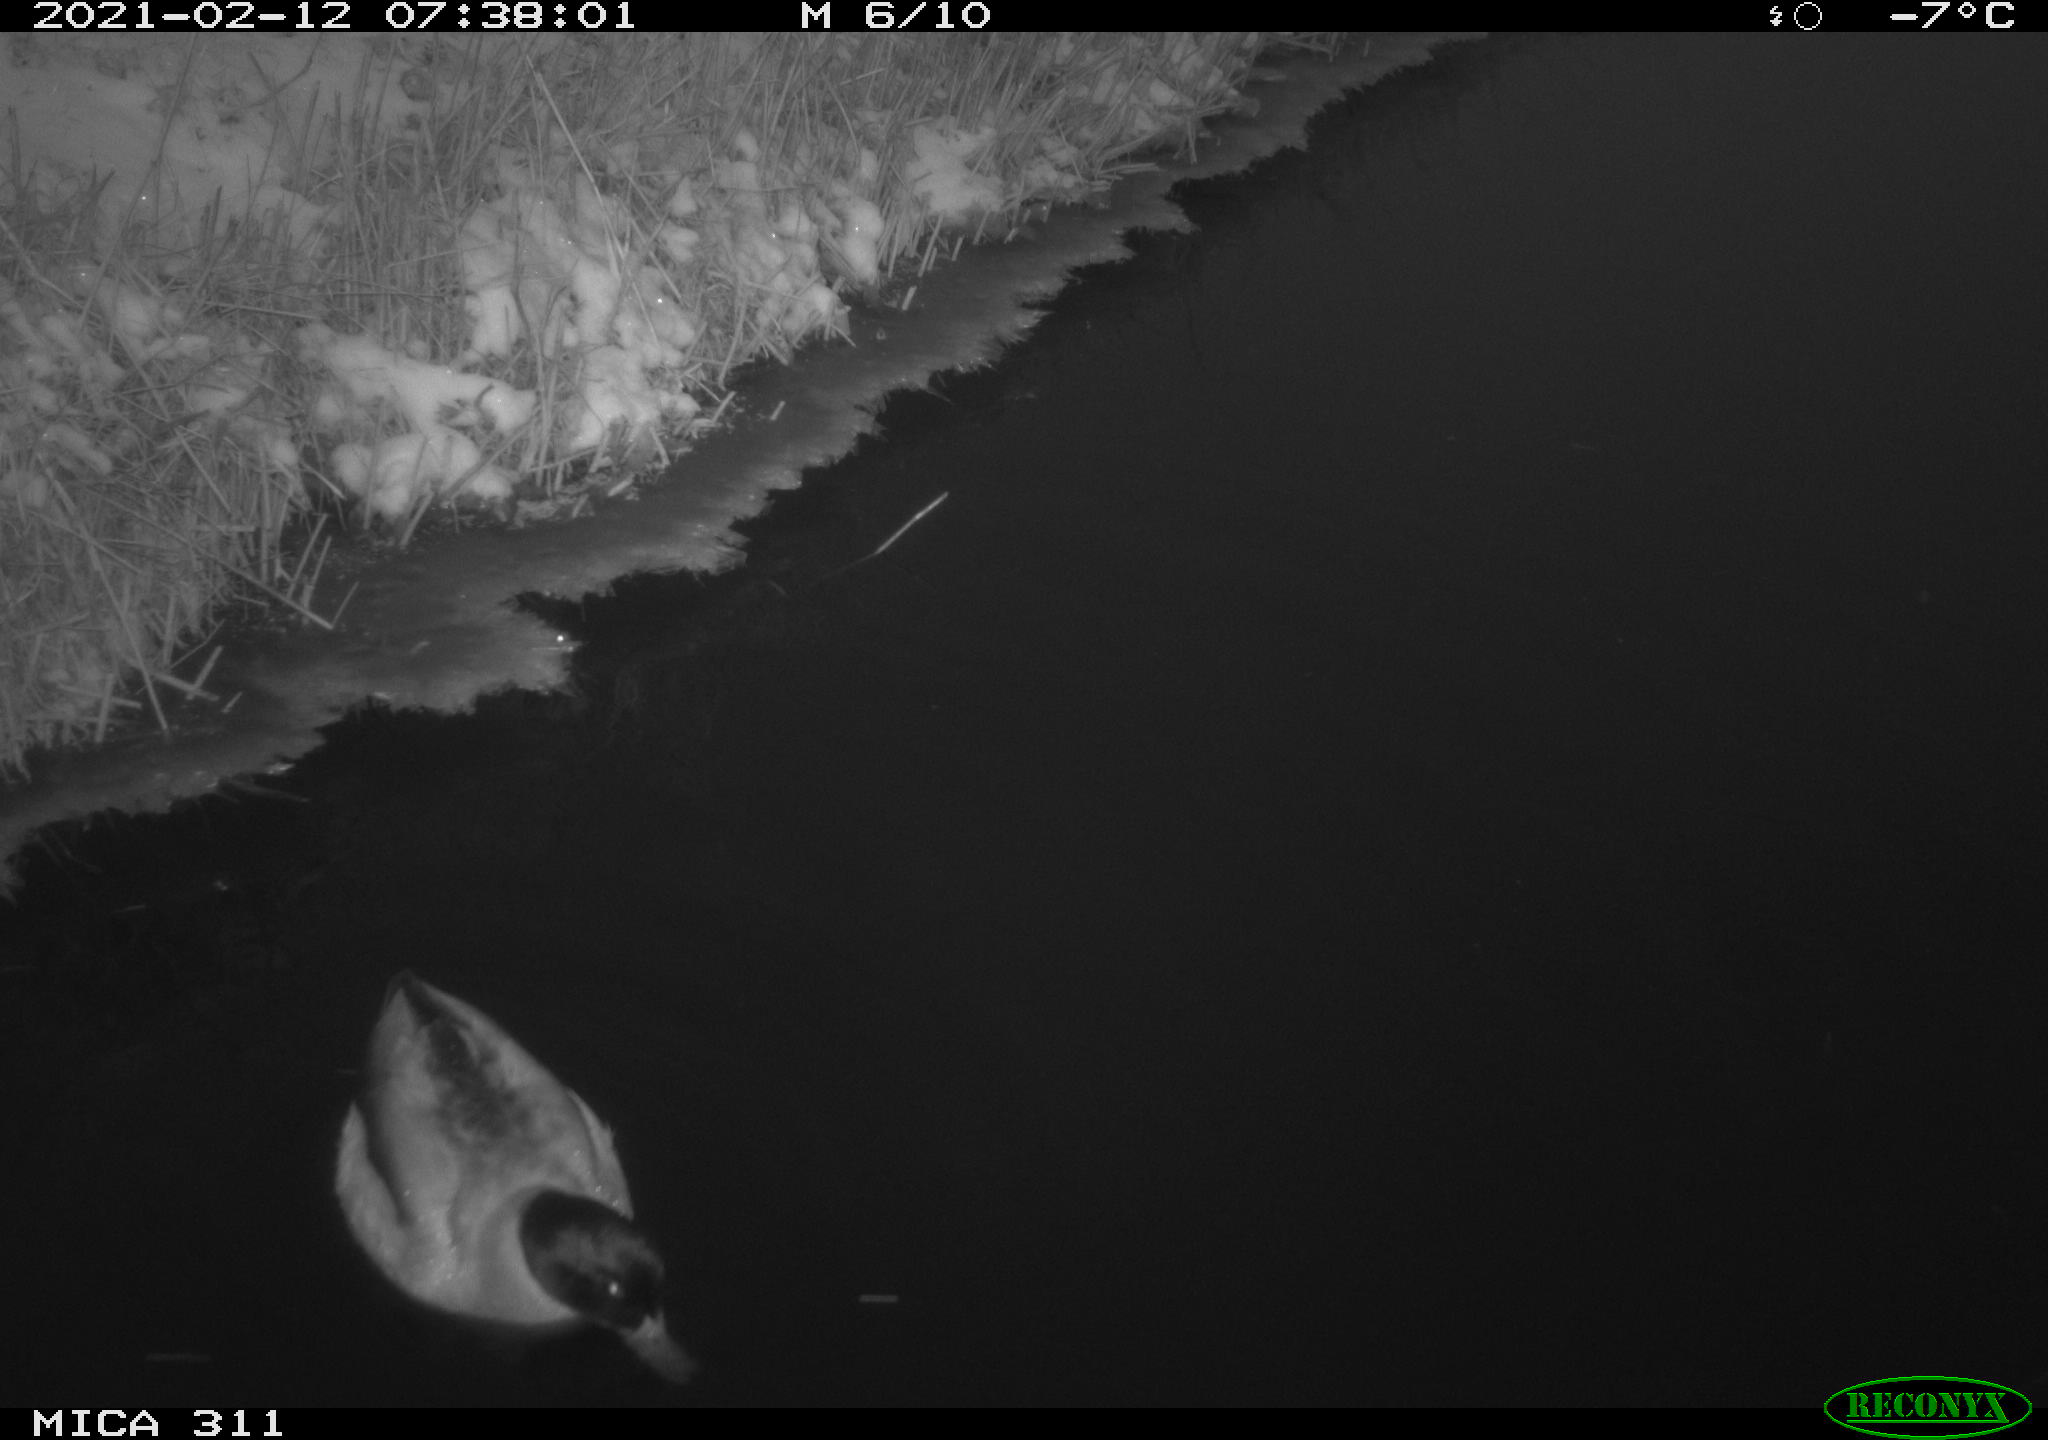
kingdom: Animalia
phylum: Chordata
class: Aves
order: Anseriformes
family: Anatidae
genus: Anas
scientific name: Anas platyrhynchos
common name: Mallard
